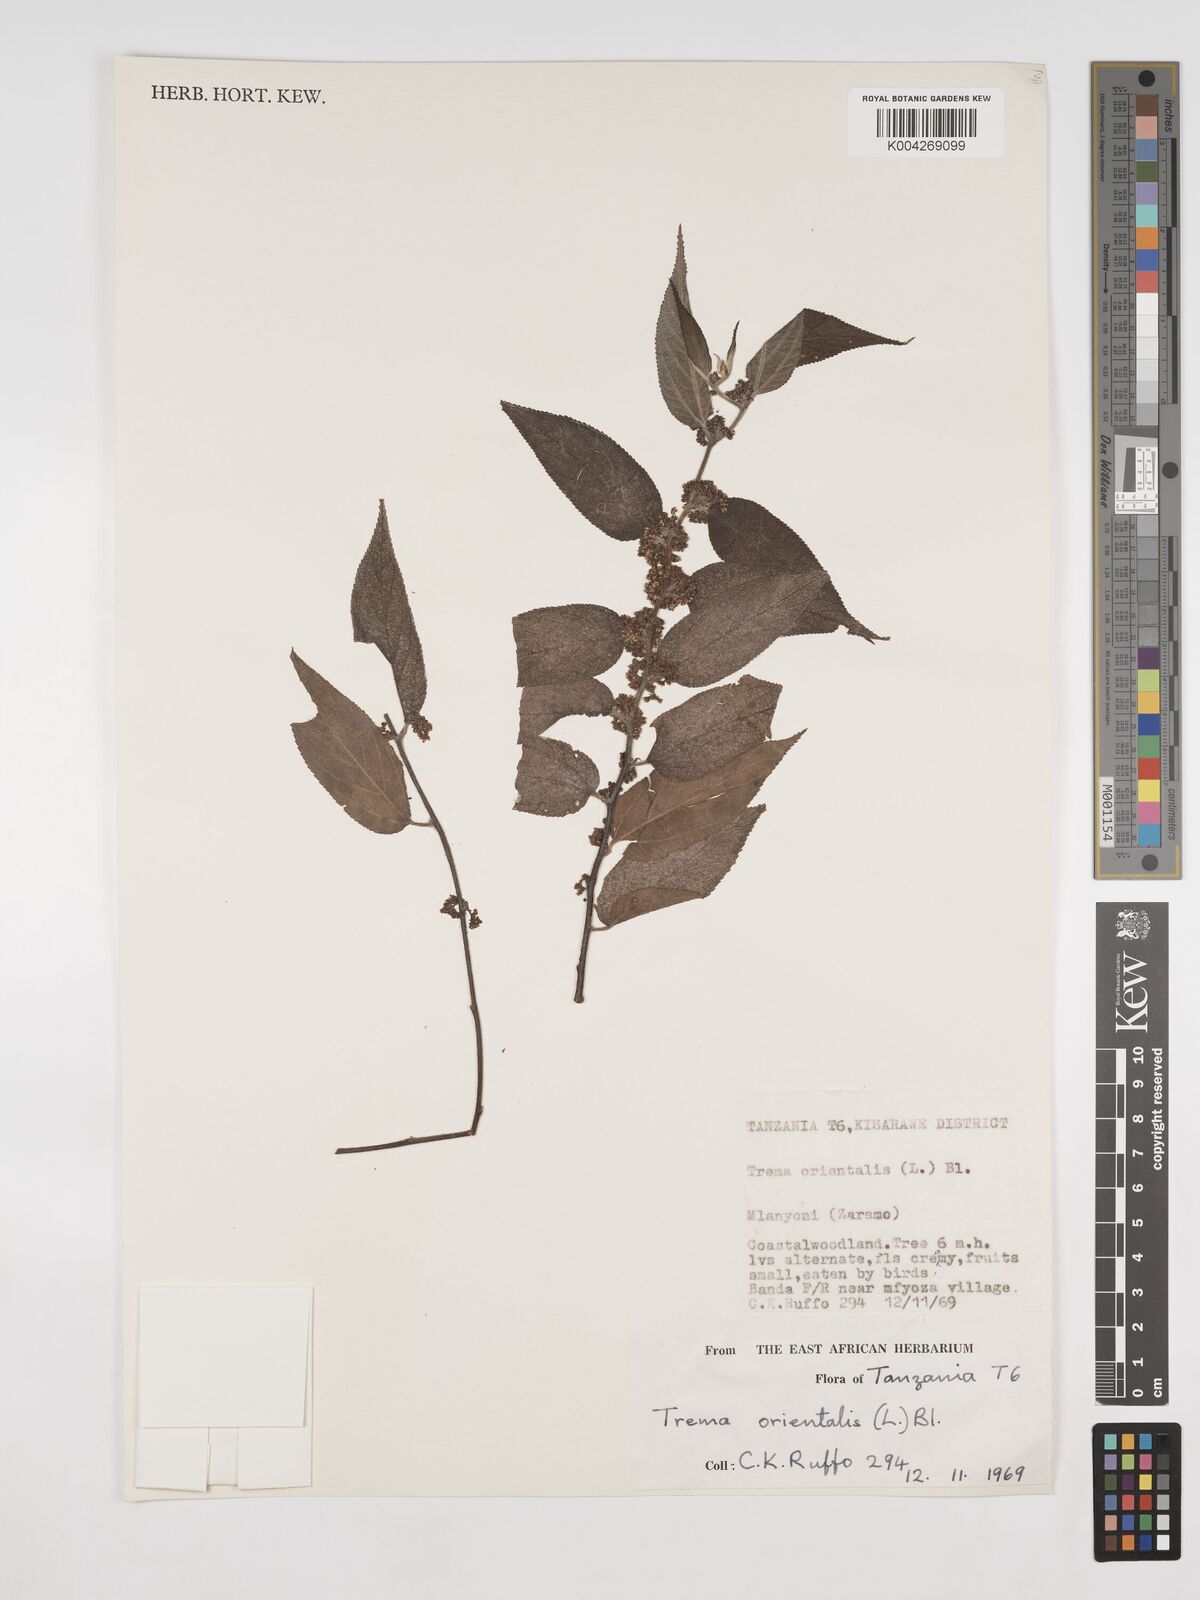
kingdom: Plantae
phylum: Tracheophyta
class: Magnoliopsida
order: Rosales
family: Cannabaceae
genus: Trema
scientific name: Trema orientale
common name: Indian charcoal tree
